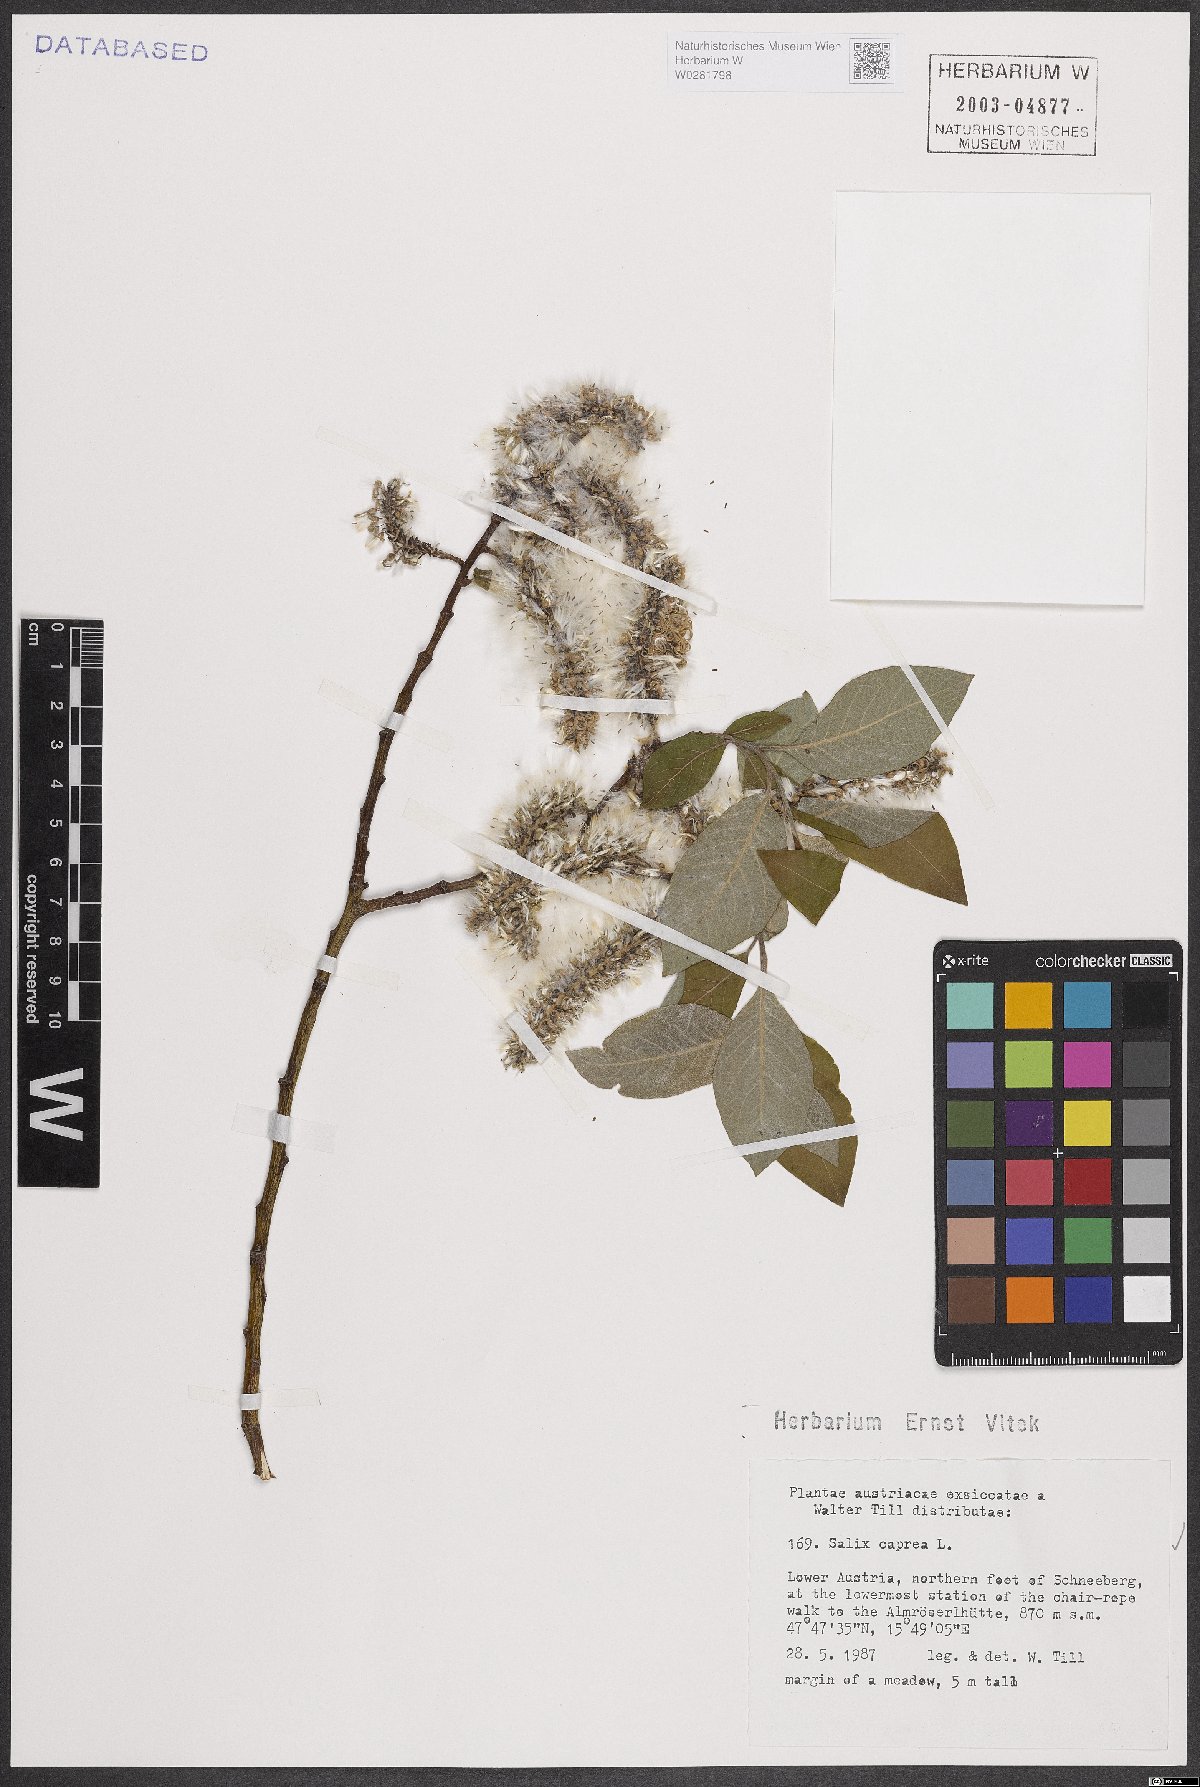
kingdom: Plantae
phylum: Tracheophyta
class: Magnoliopsida
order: Malpighiales
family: Salicaceae
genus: Salix
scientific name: Salix caprea
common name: Goat willow
